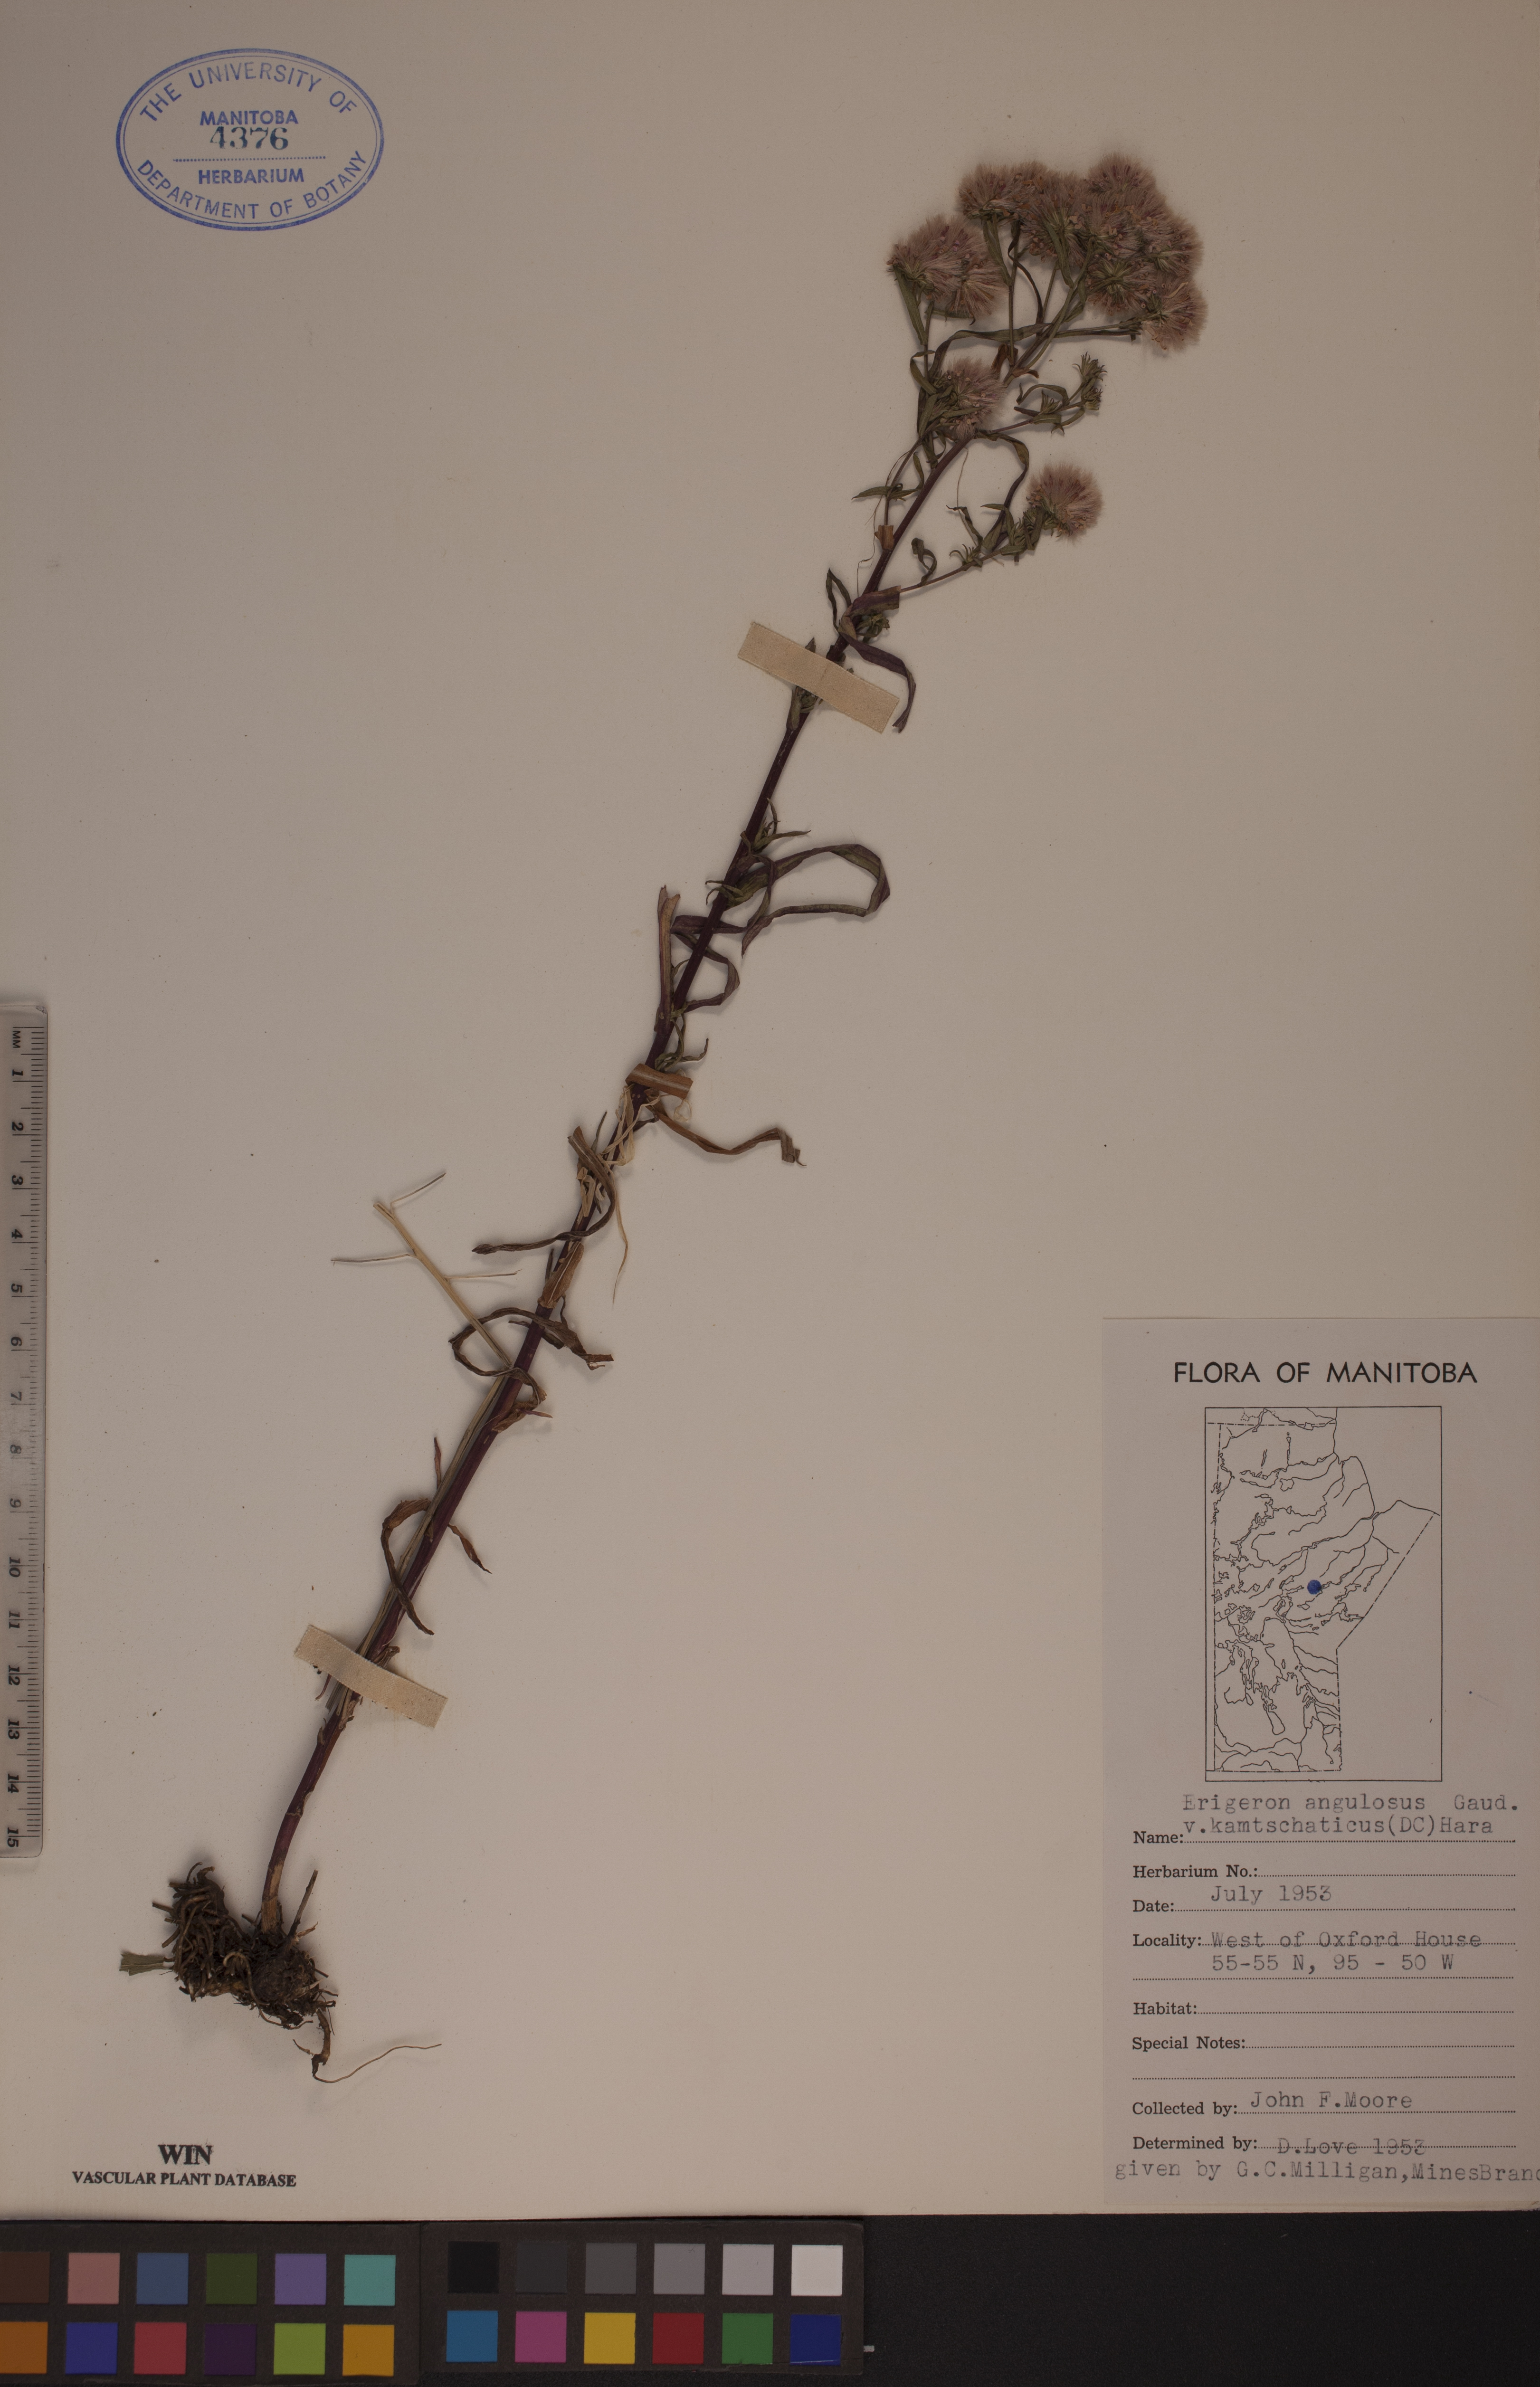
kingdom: Plantae
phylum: Tracheophyta
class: Magnoliopsida
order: Asterales
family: Asteraceae
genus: Erigeron
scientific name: Erigeron kamtschaticus
